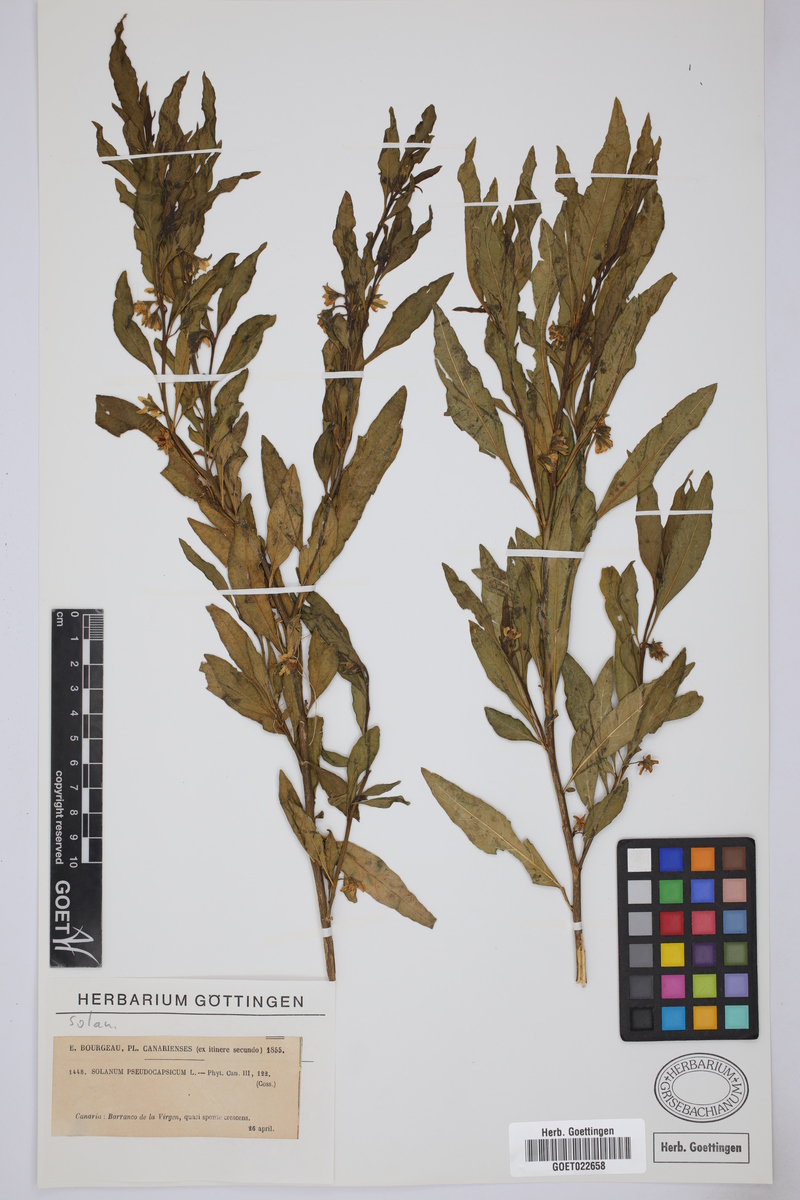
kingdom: Plantae
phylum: Tracheophyta
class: Magnoliopsida
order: Solanales
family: Solanaceae
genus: Solanum
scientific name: Solanum pseudocapsicum
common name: Jerusalem cherry
